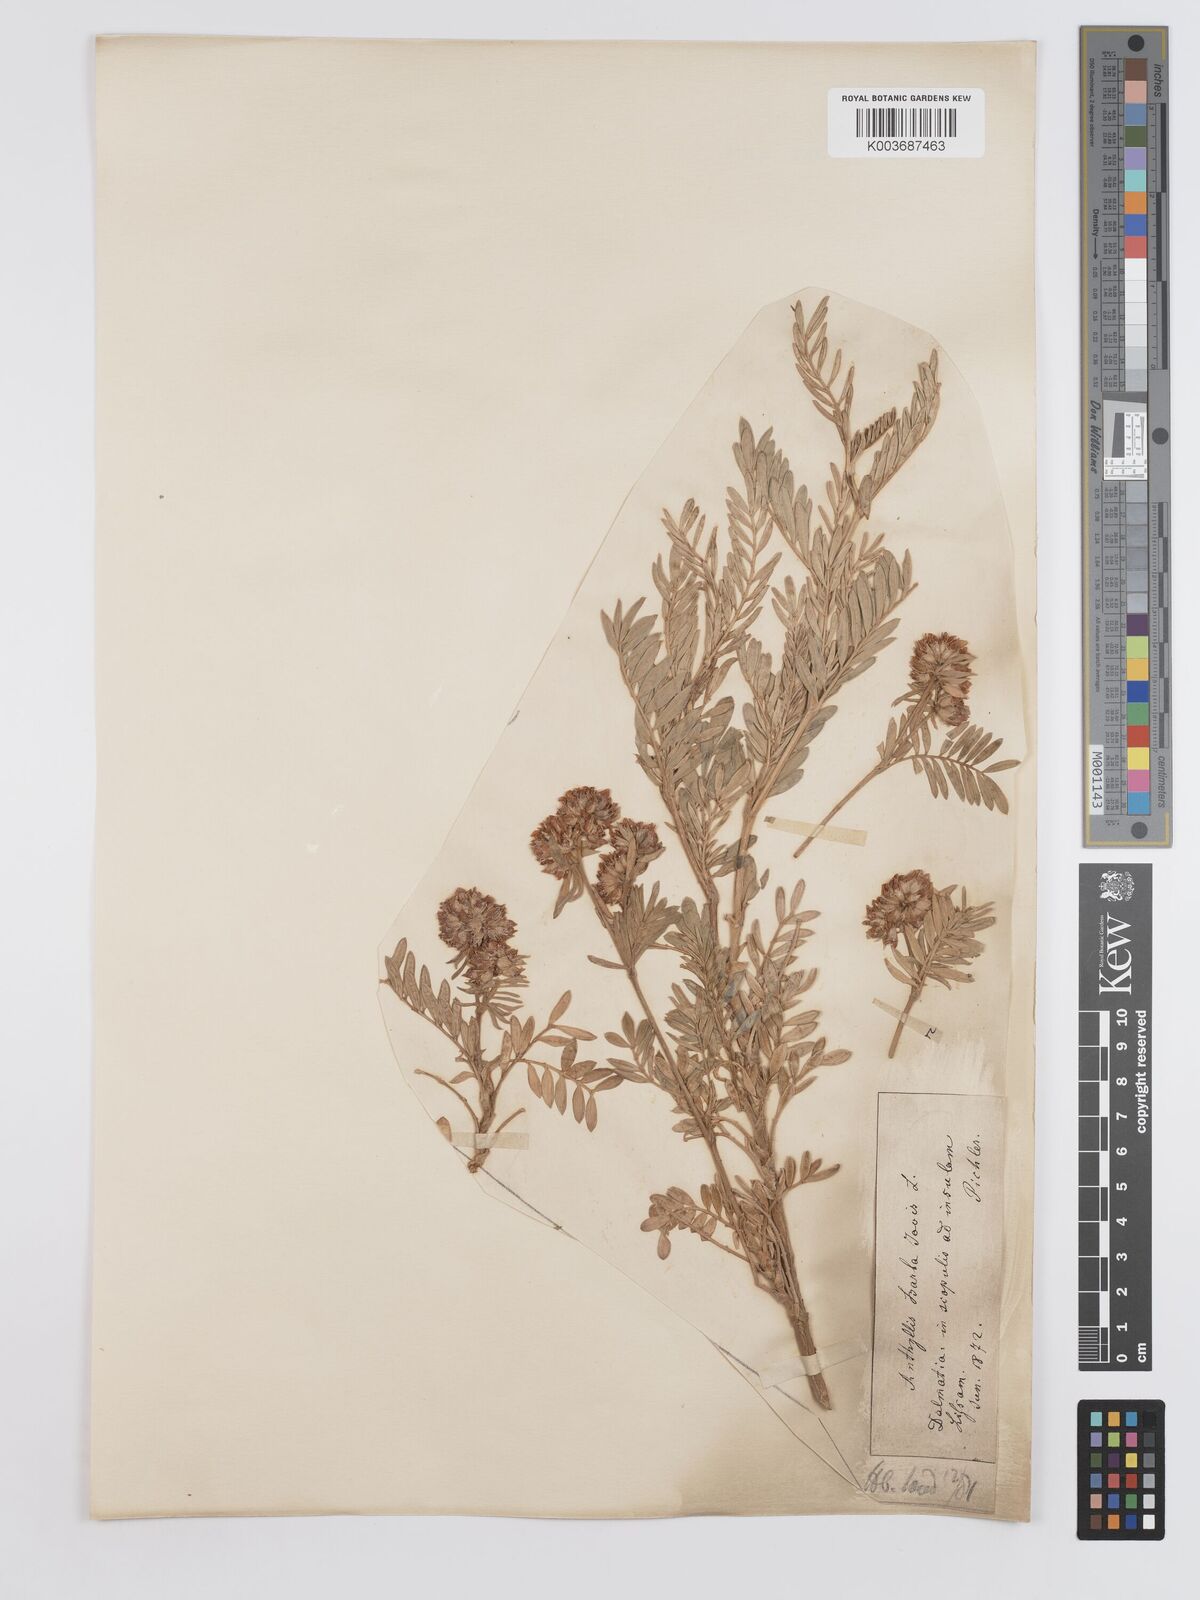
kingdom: Plantae
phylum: Tracheophyta
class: Magnoliopsida
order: Fabales
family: Fabaceae
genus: Anthyllis
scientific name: Anthyllis barba-jovis
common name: Jupiter's-beard
